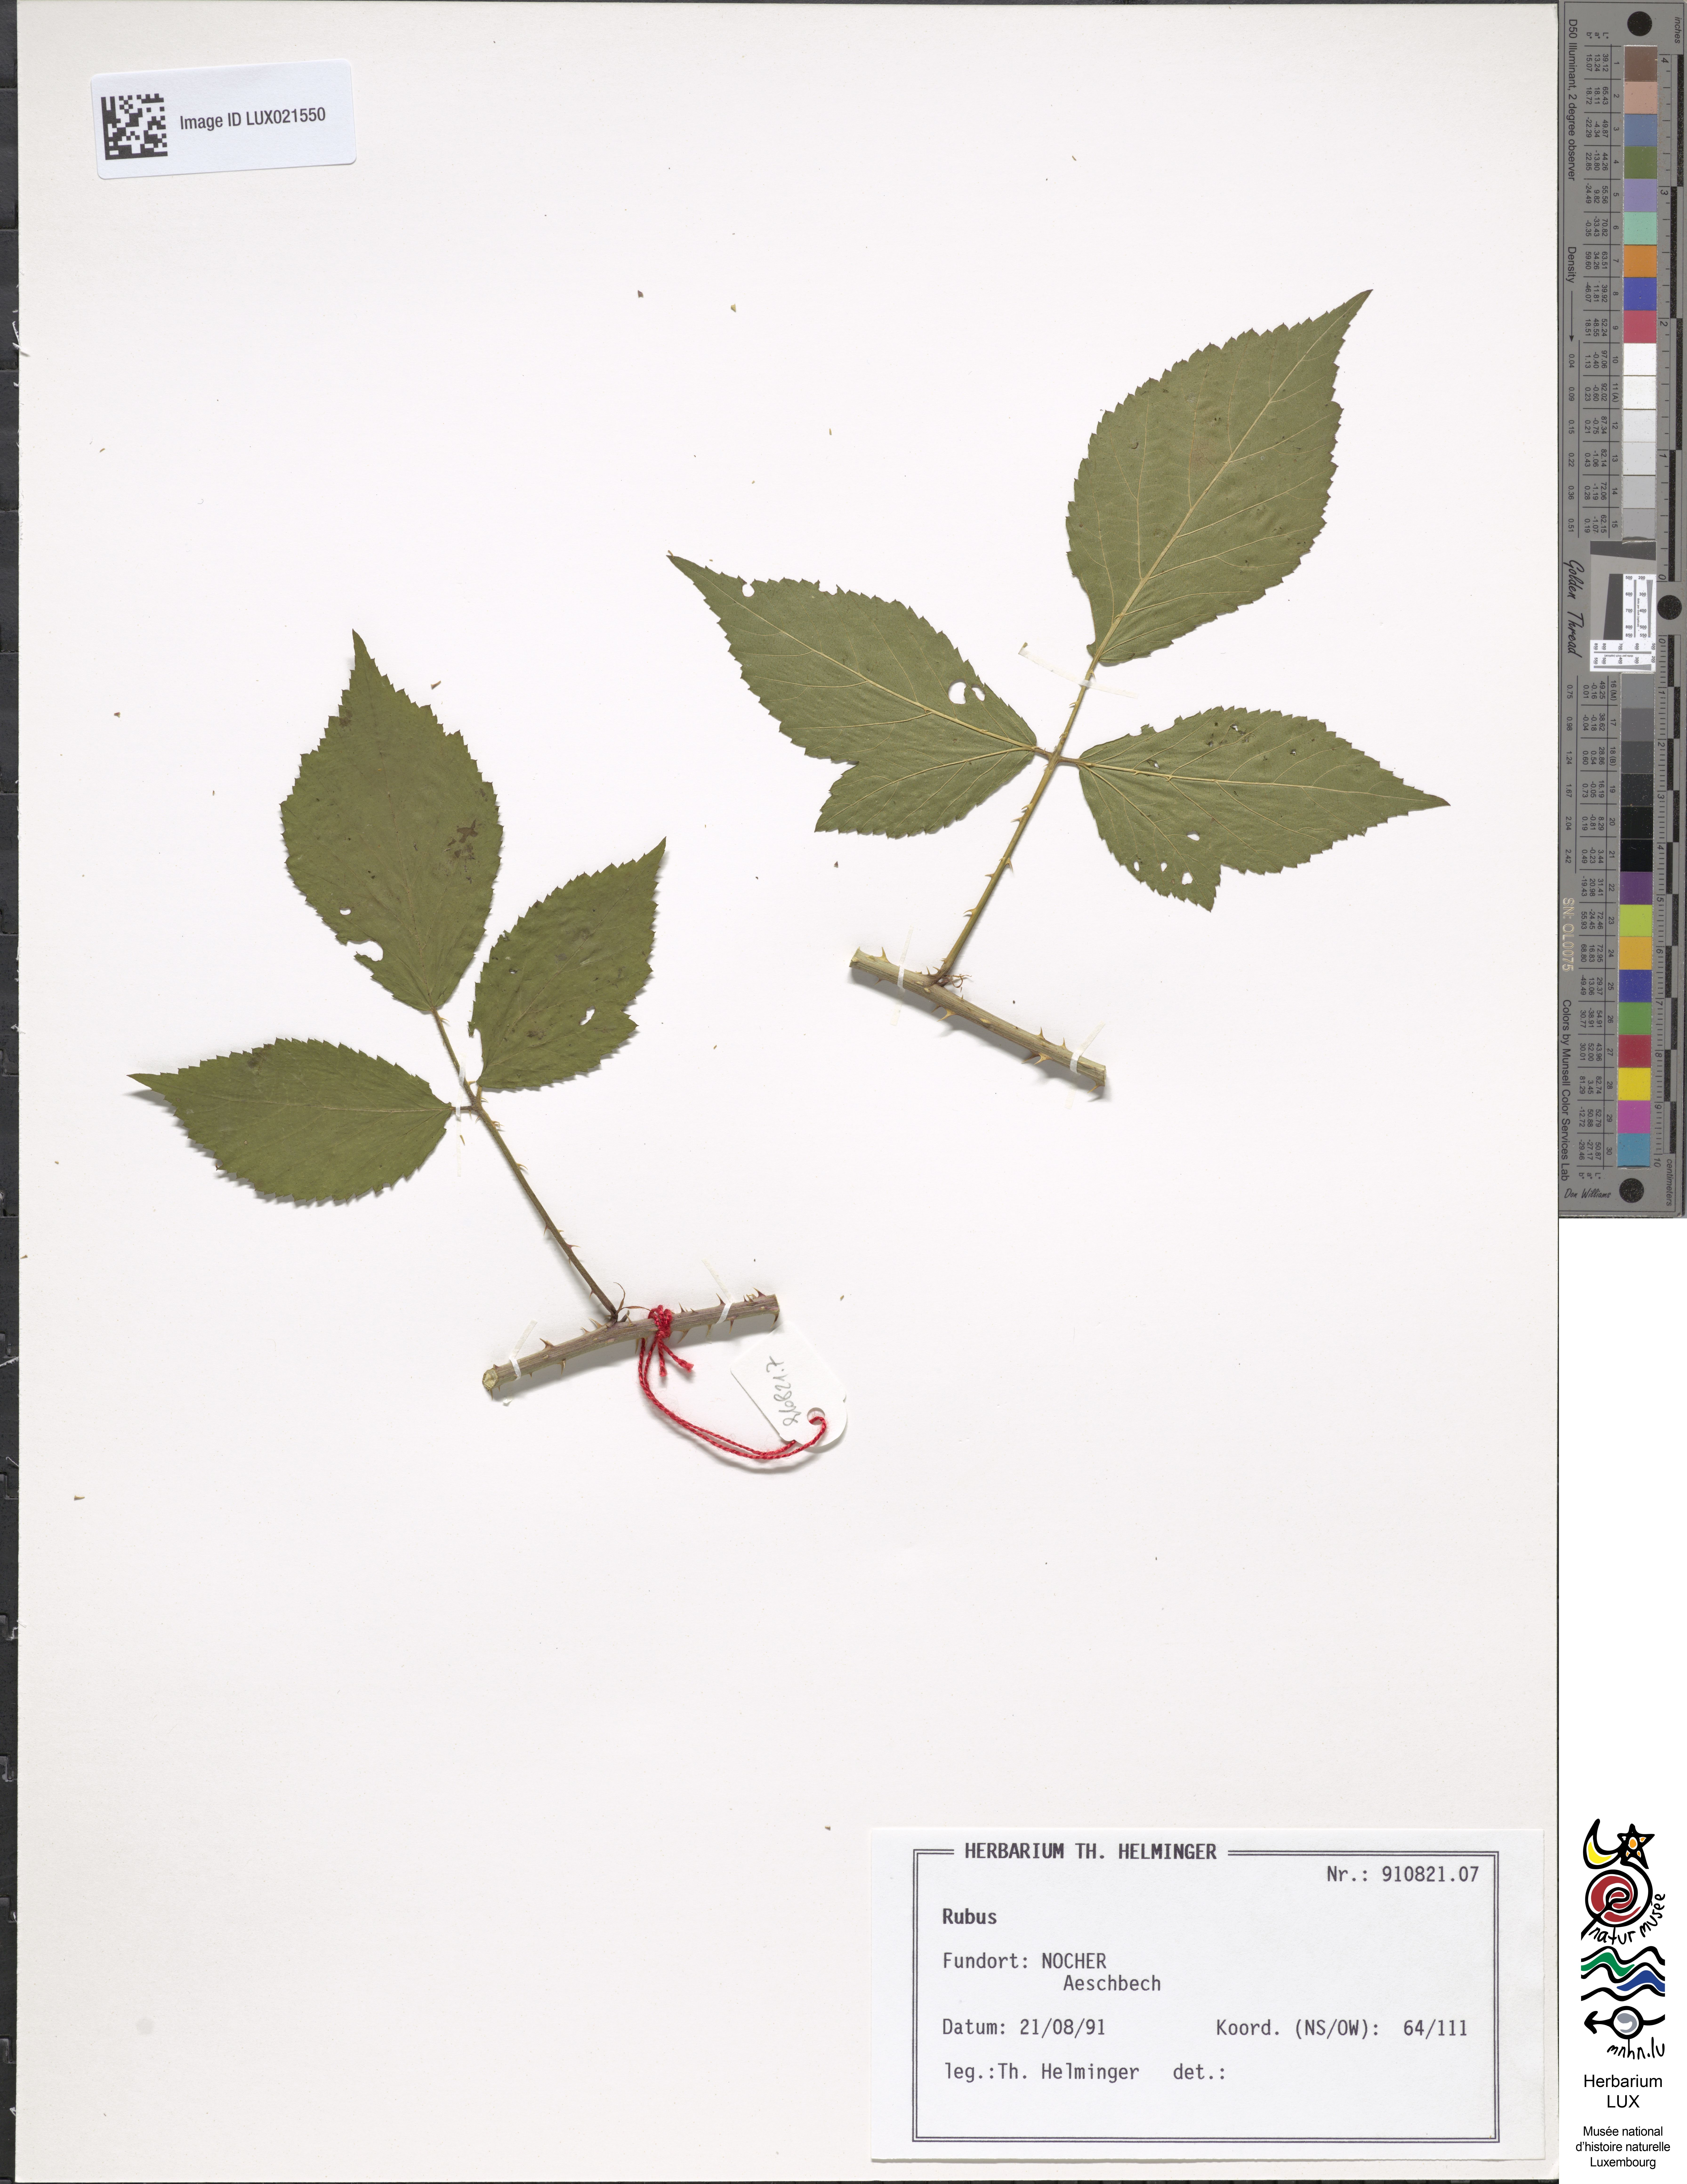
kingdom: Plantae
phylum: Tracheophyta
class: Magnoliopsida
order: Rosales
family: Rosaceae
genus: Rubus
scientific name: Rubus
